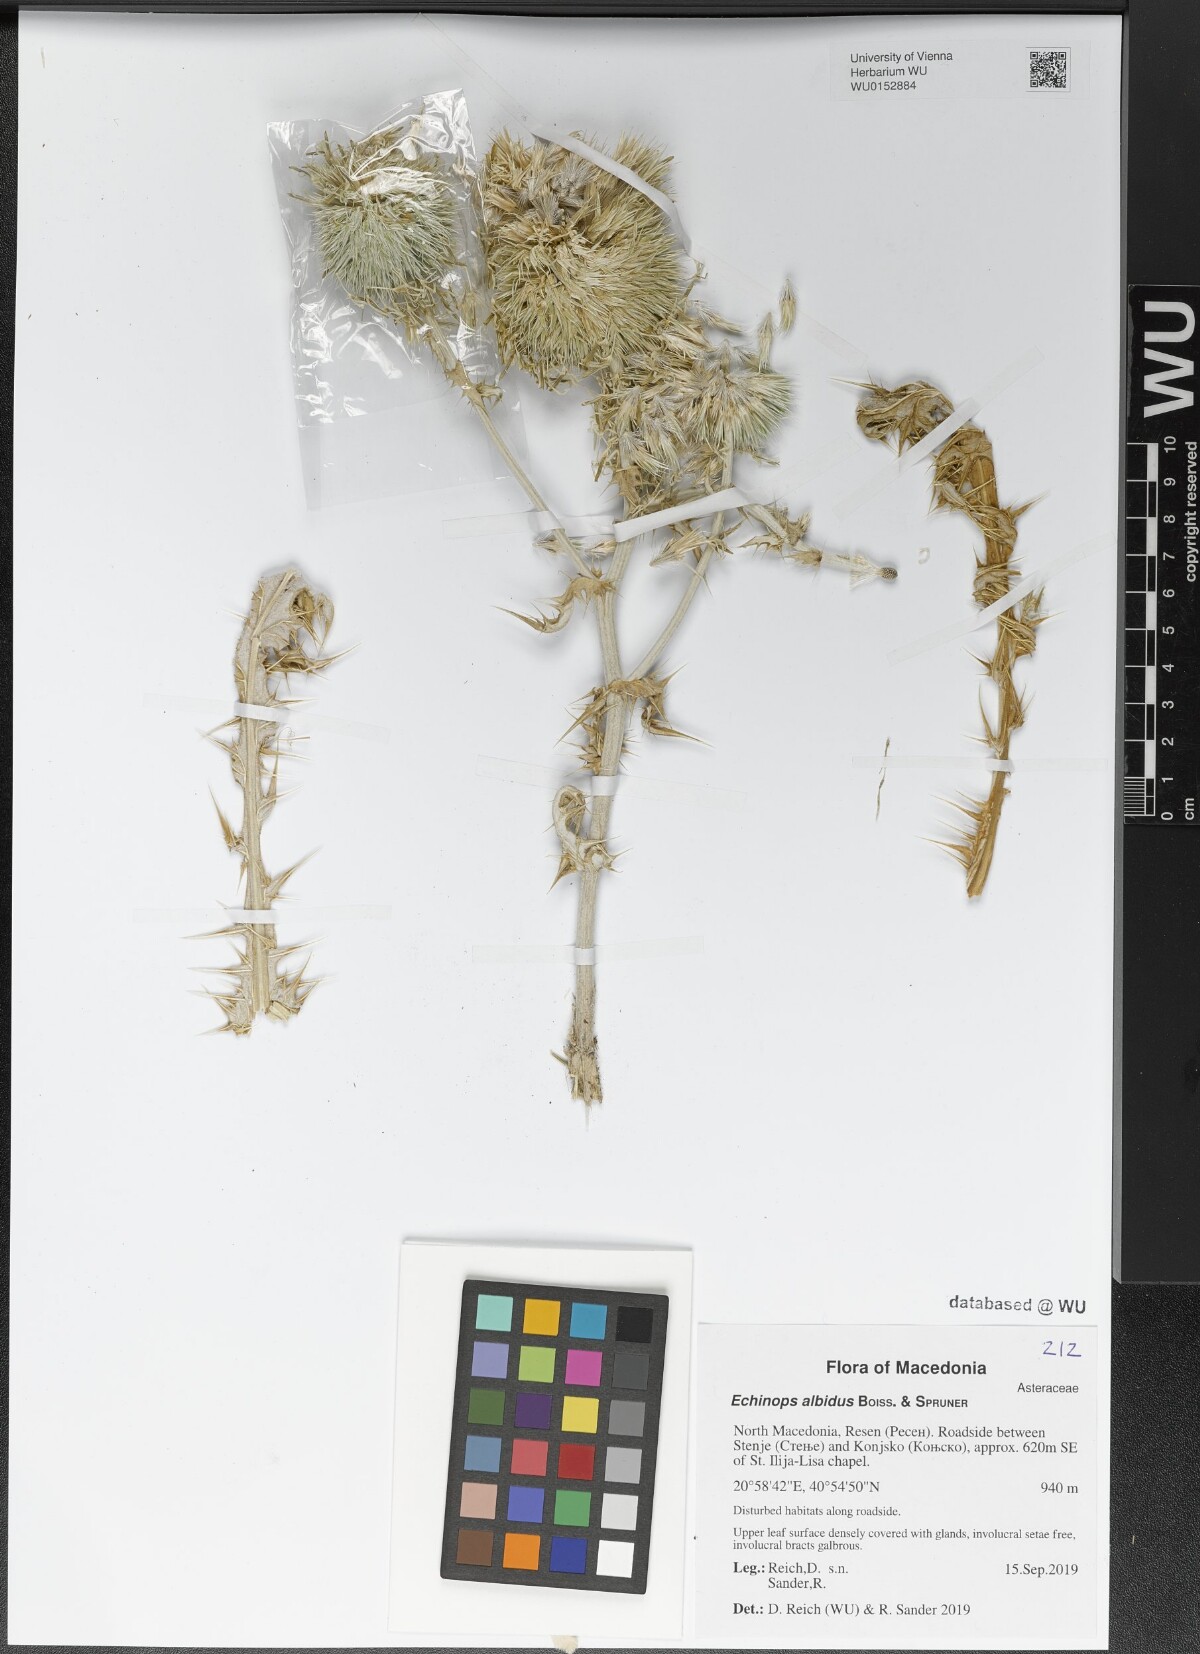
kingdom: Plantae
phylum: Tracheophyta
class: Magnoliopsida
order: Asterales
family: Asteraceae
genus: Echinops
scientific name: Echinops sphaerocephalus
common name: Glandular globe-thistle
